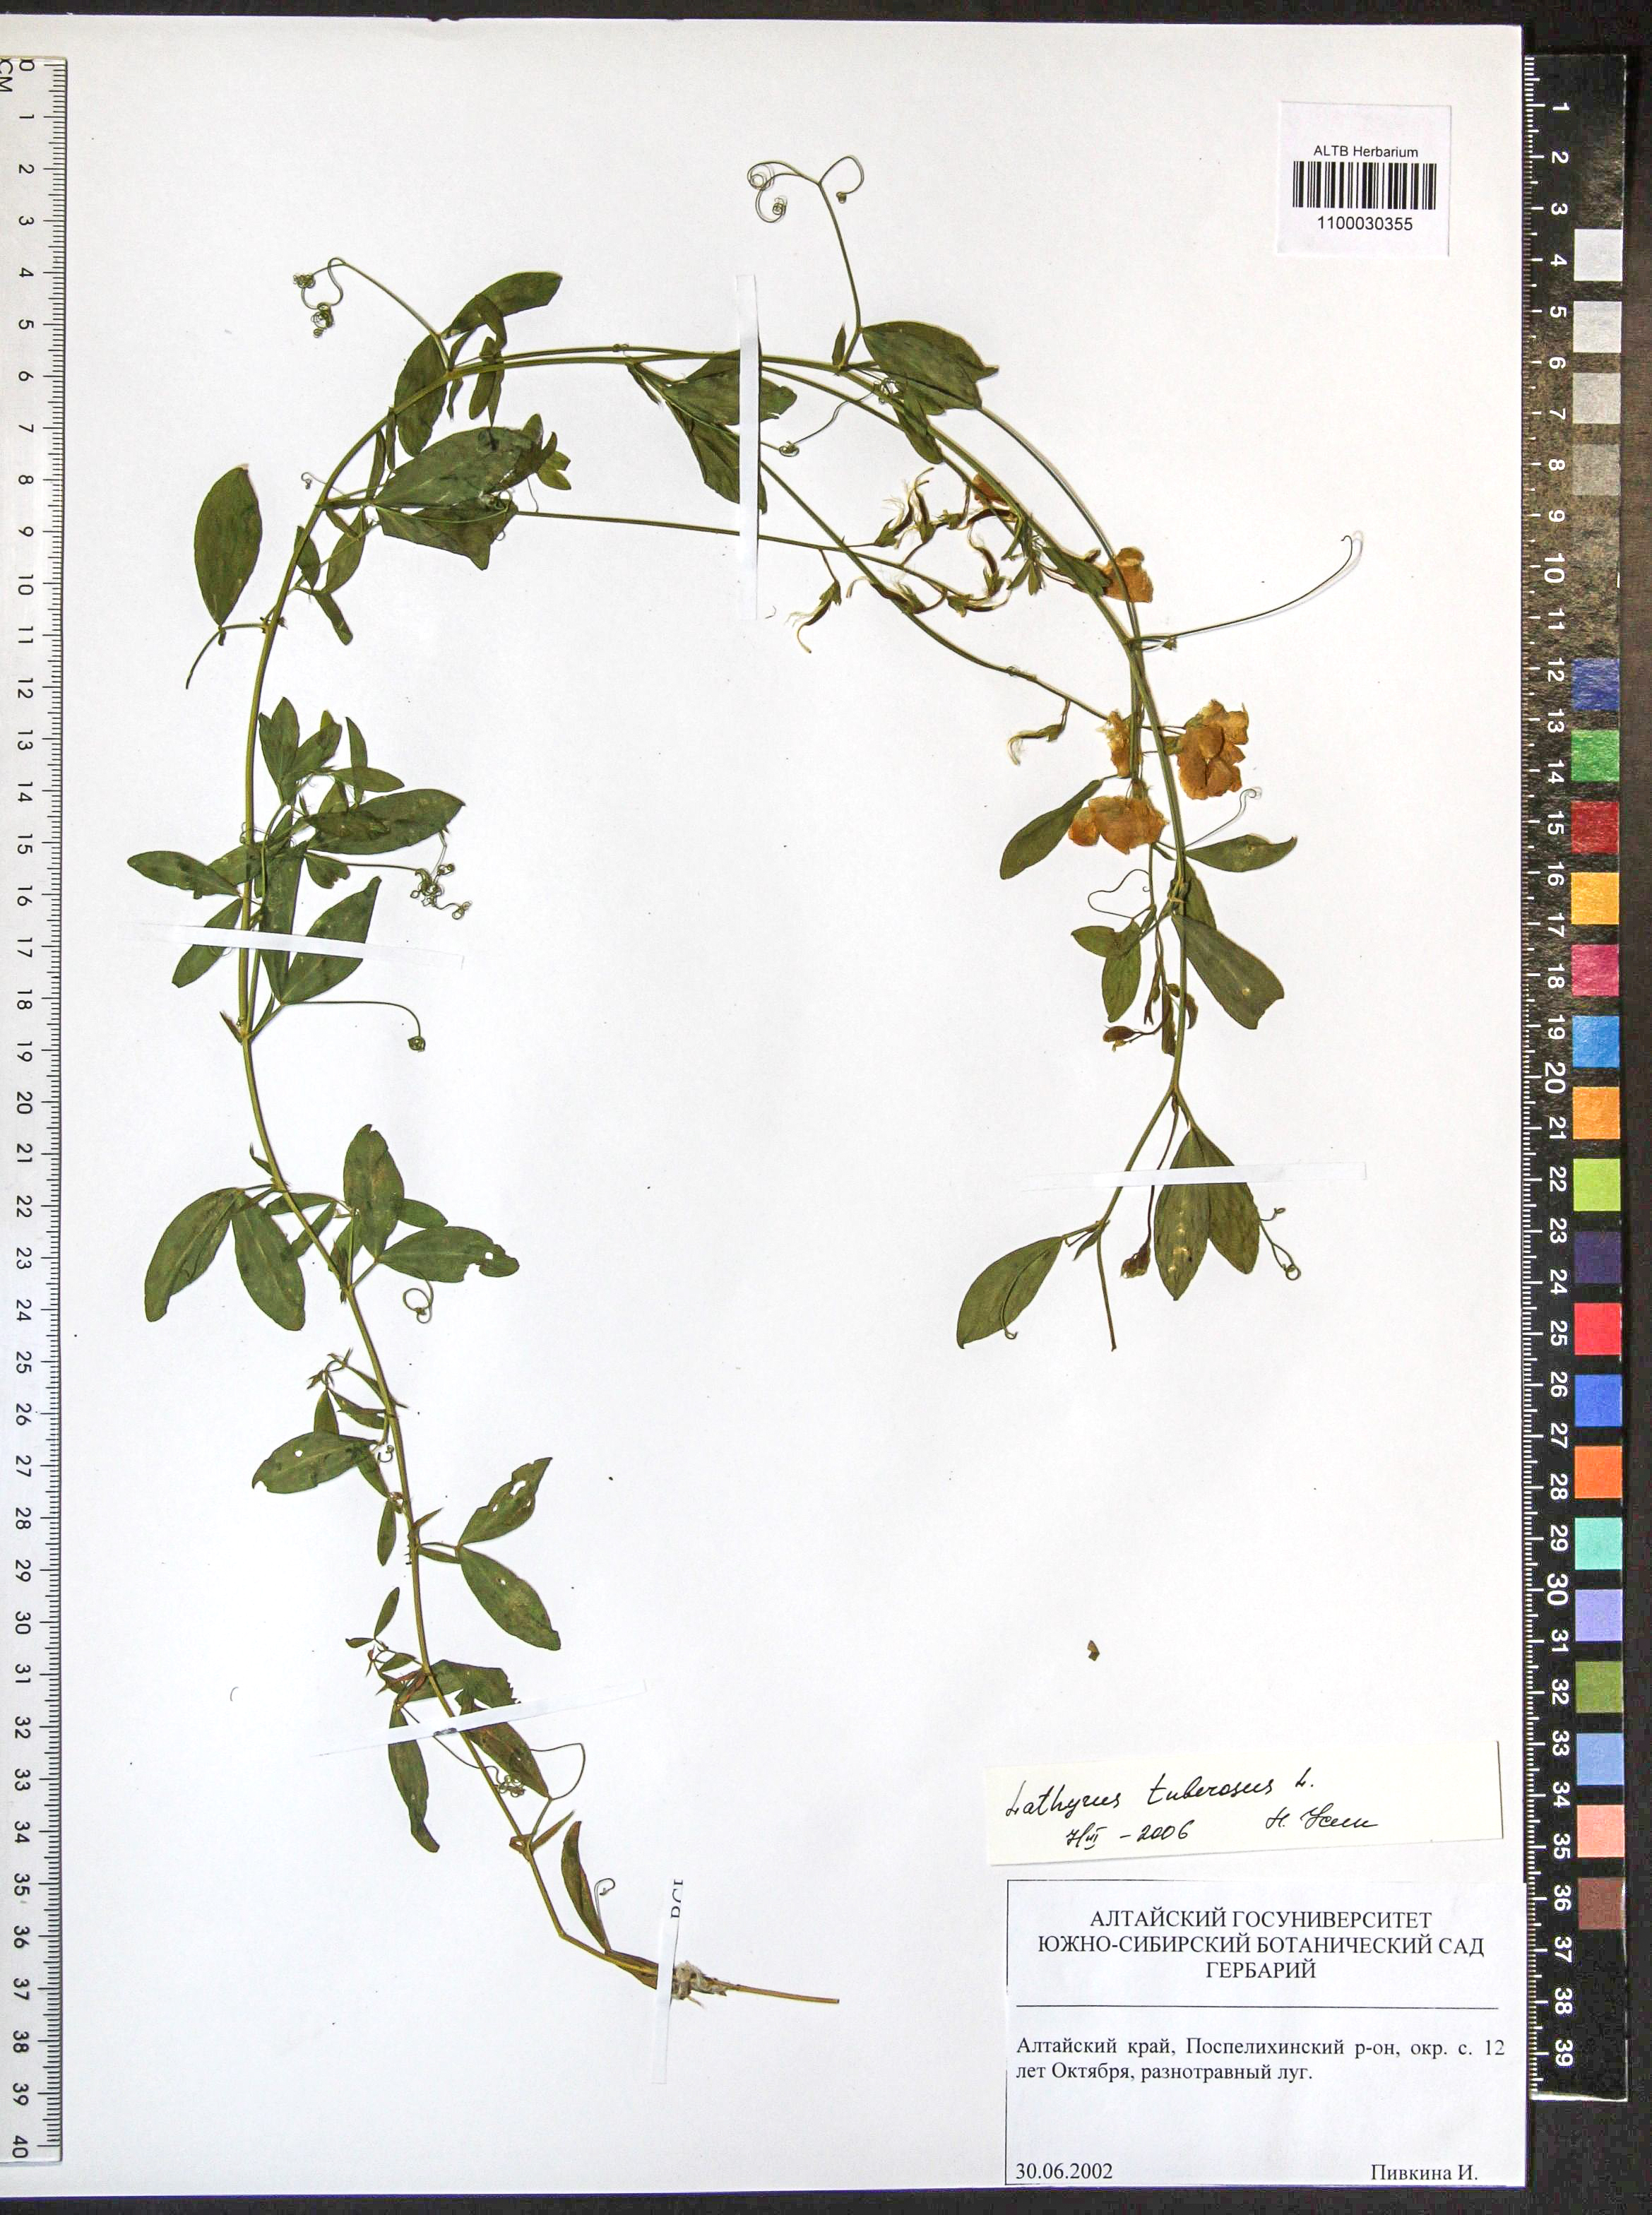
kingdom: Plantae
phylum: Tracheophyta
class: Magnoliopsida
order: Fabales
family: Fabaceae
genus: Lathyrus
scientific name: Lathyrus tuberosus
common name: Tuberous pea
